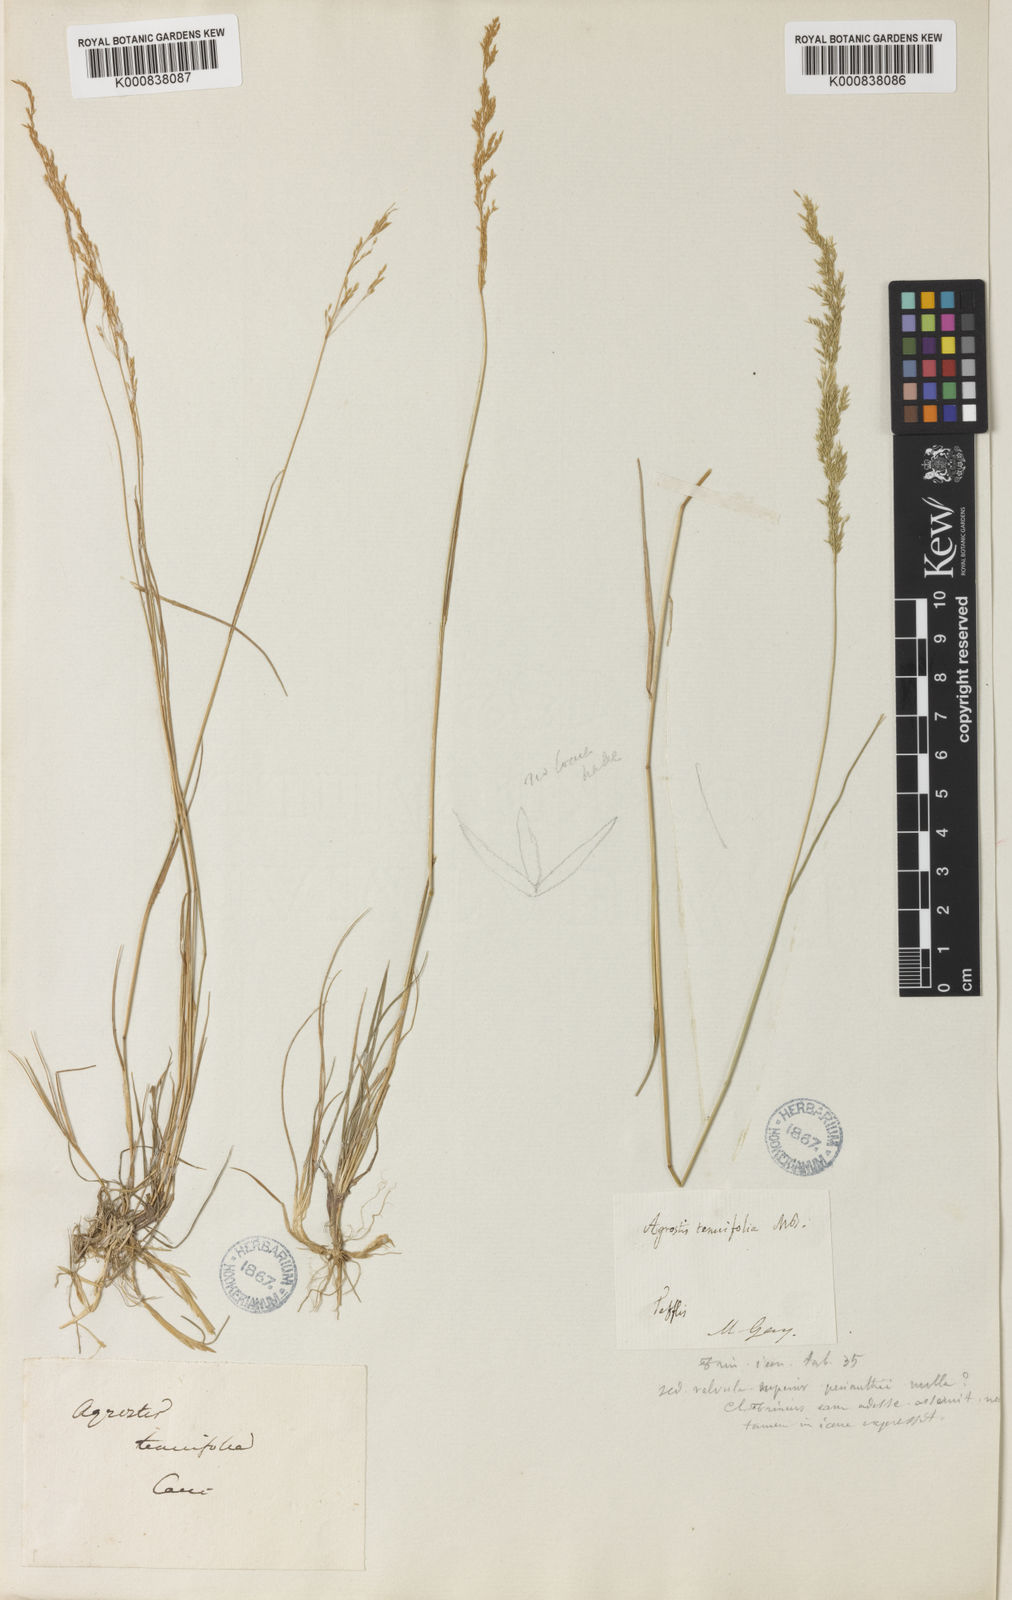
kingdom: Plantae
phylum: Tracheophyta
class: Liliopsida
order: Poales
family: Poaceae
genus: Agrostis
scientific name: Agrostis vinealis
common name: Brown bent
